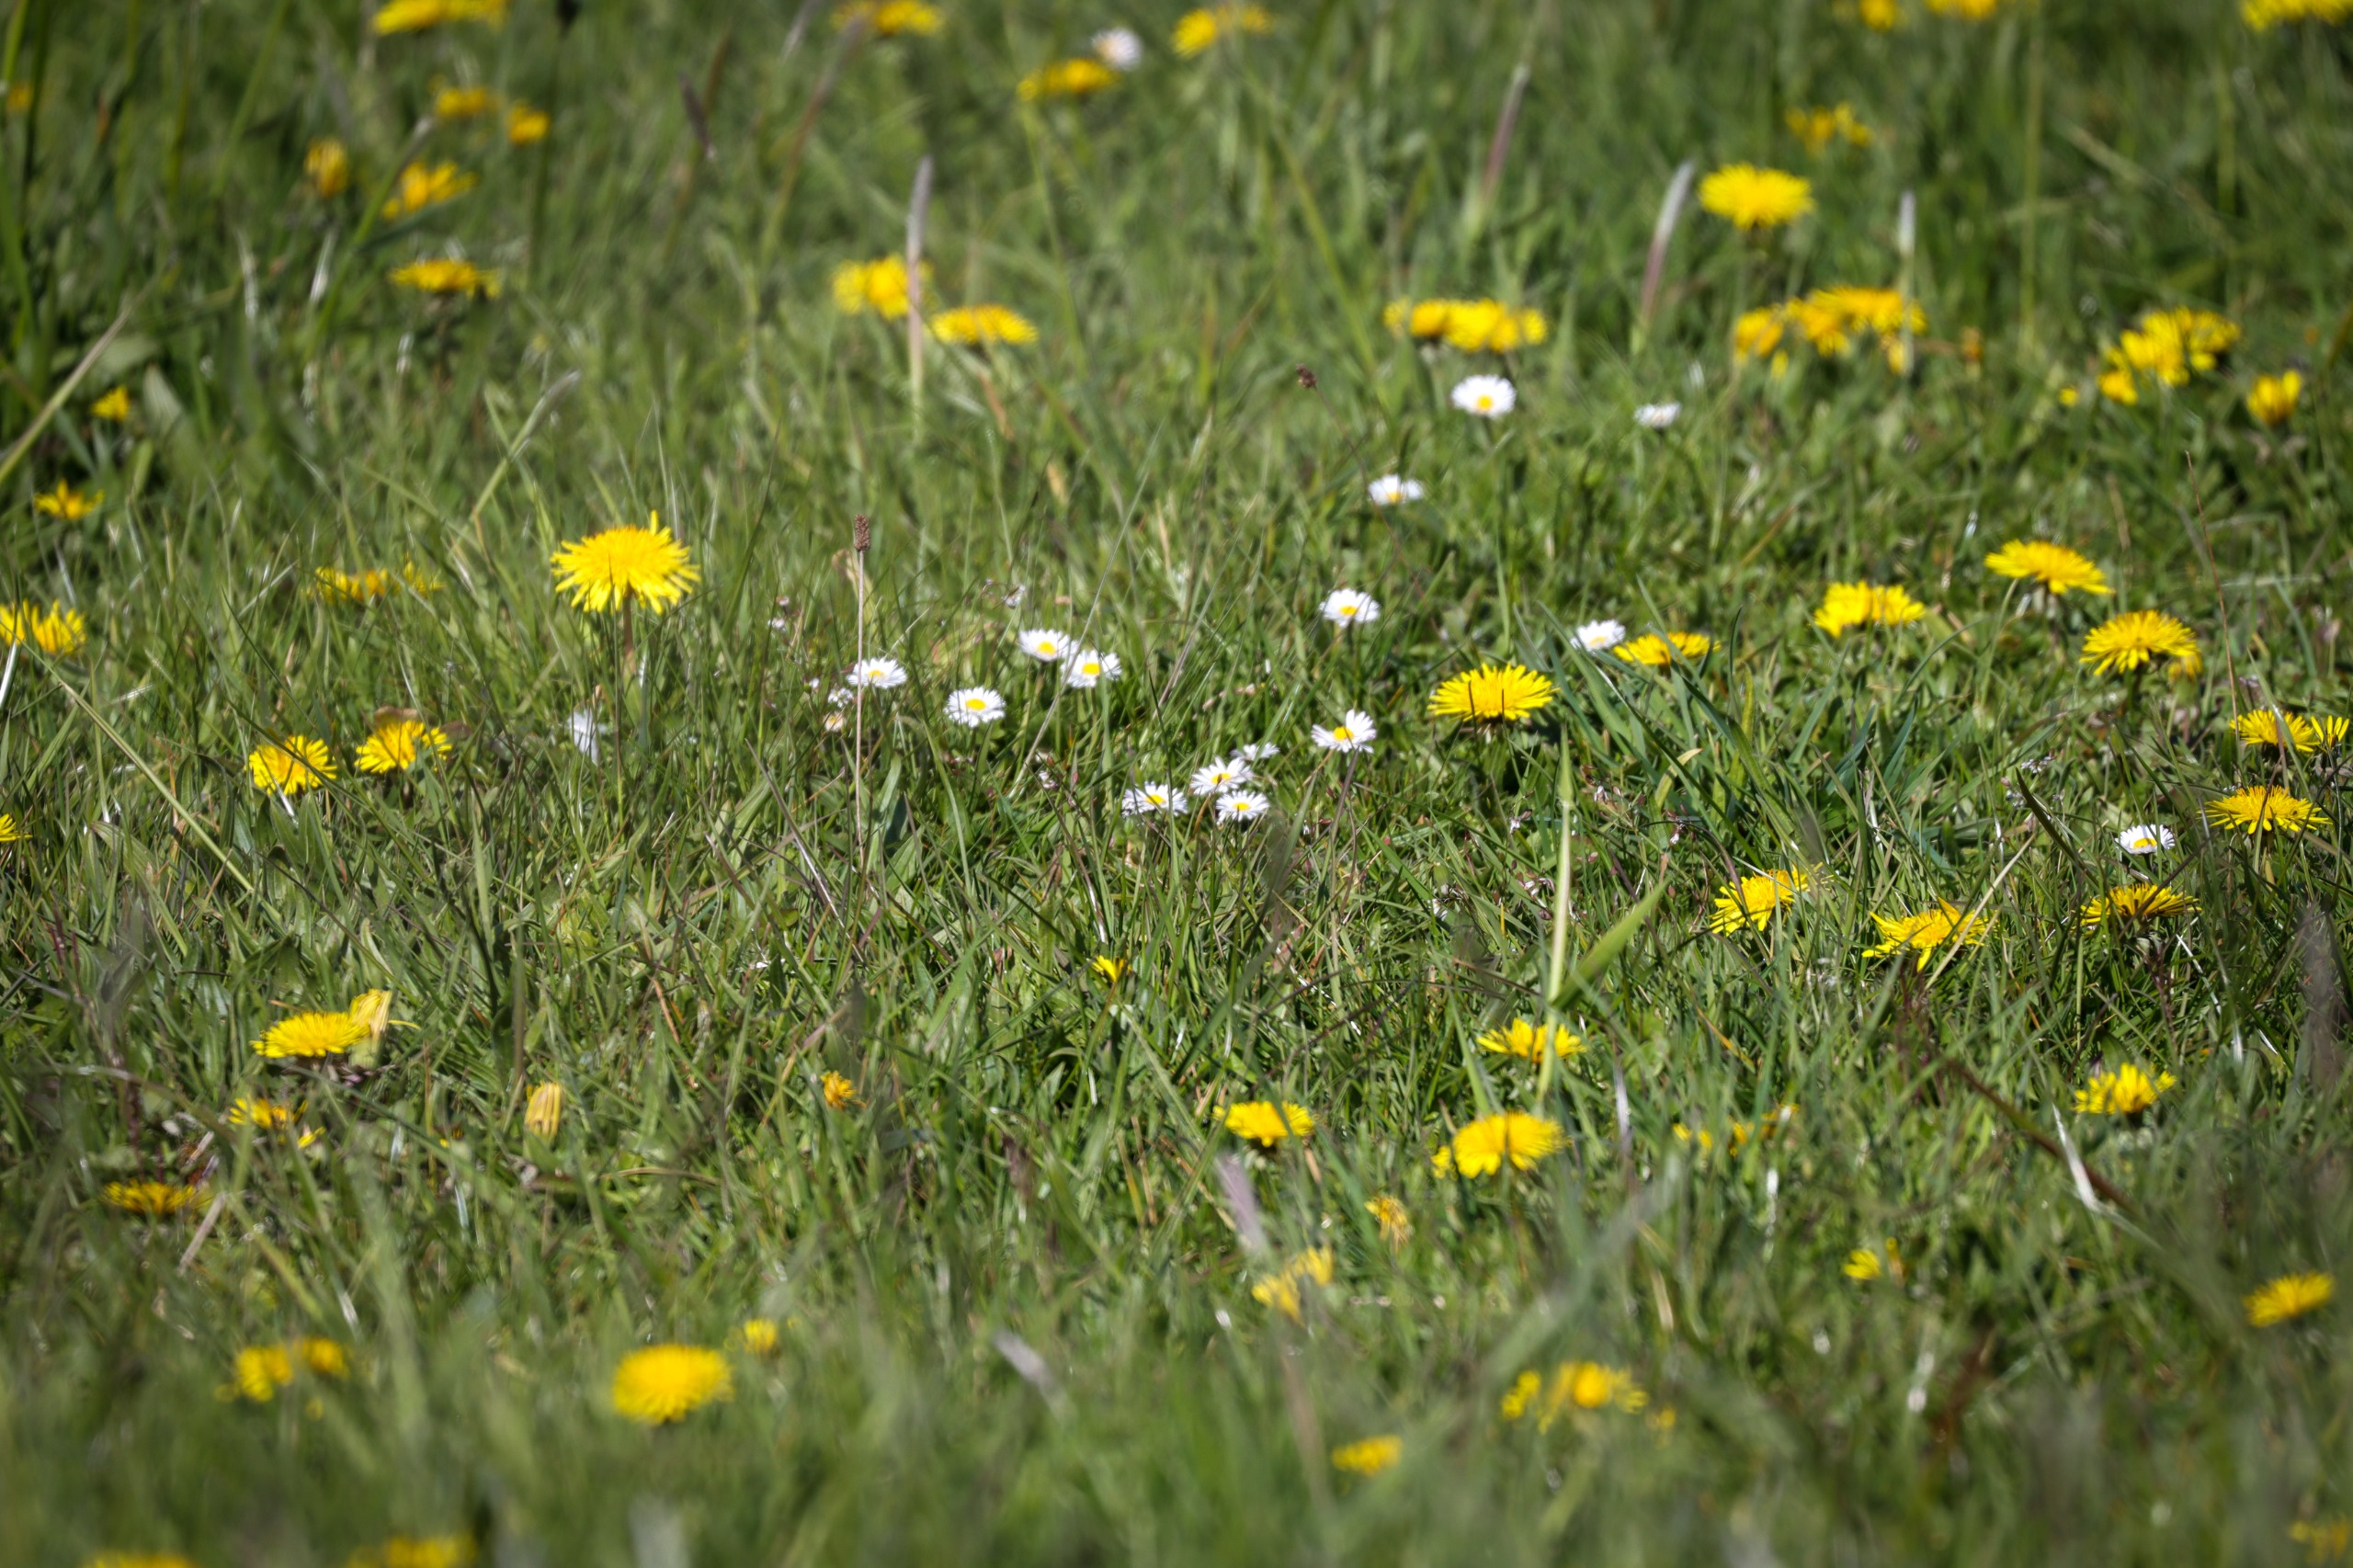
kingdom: Plantae
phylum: Tracheophyta
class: Magnoliopsida
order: Asterales
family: Asteraceae
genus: Bellis
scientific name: Bellis perennis
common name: Tusindfryd
